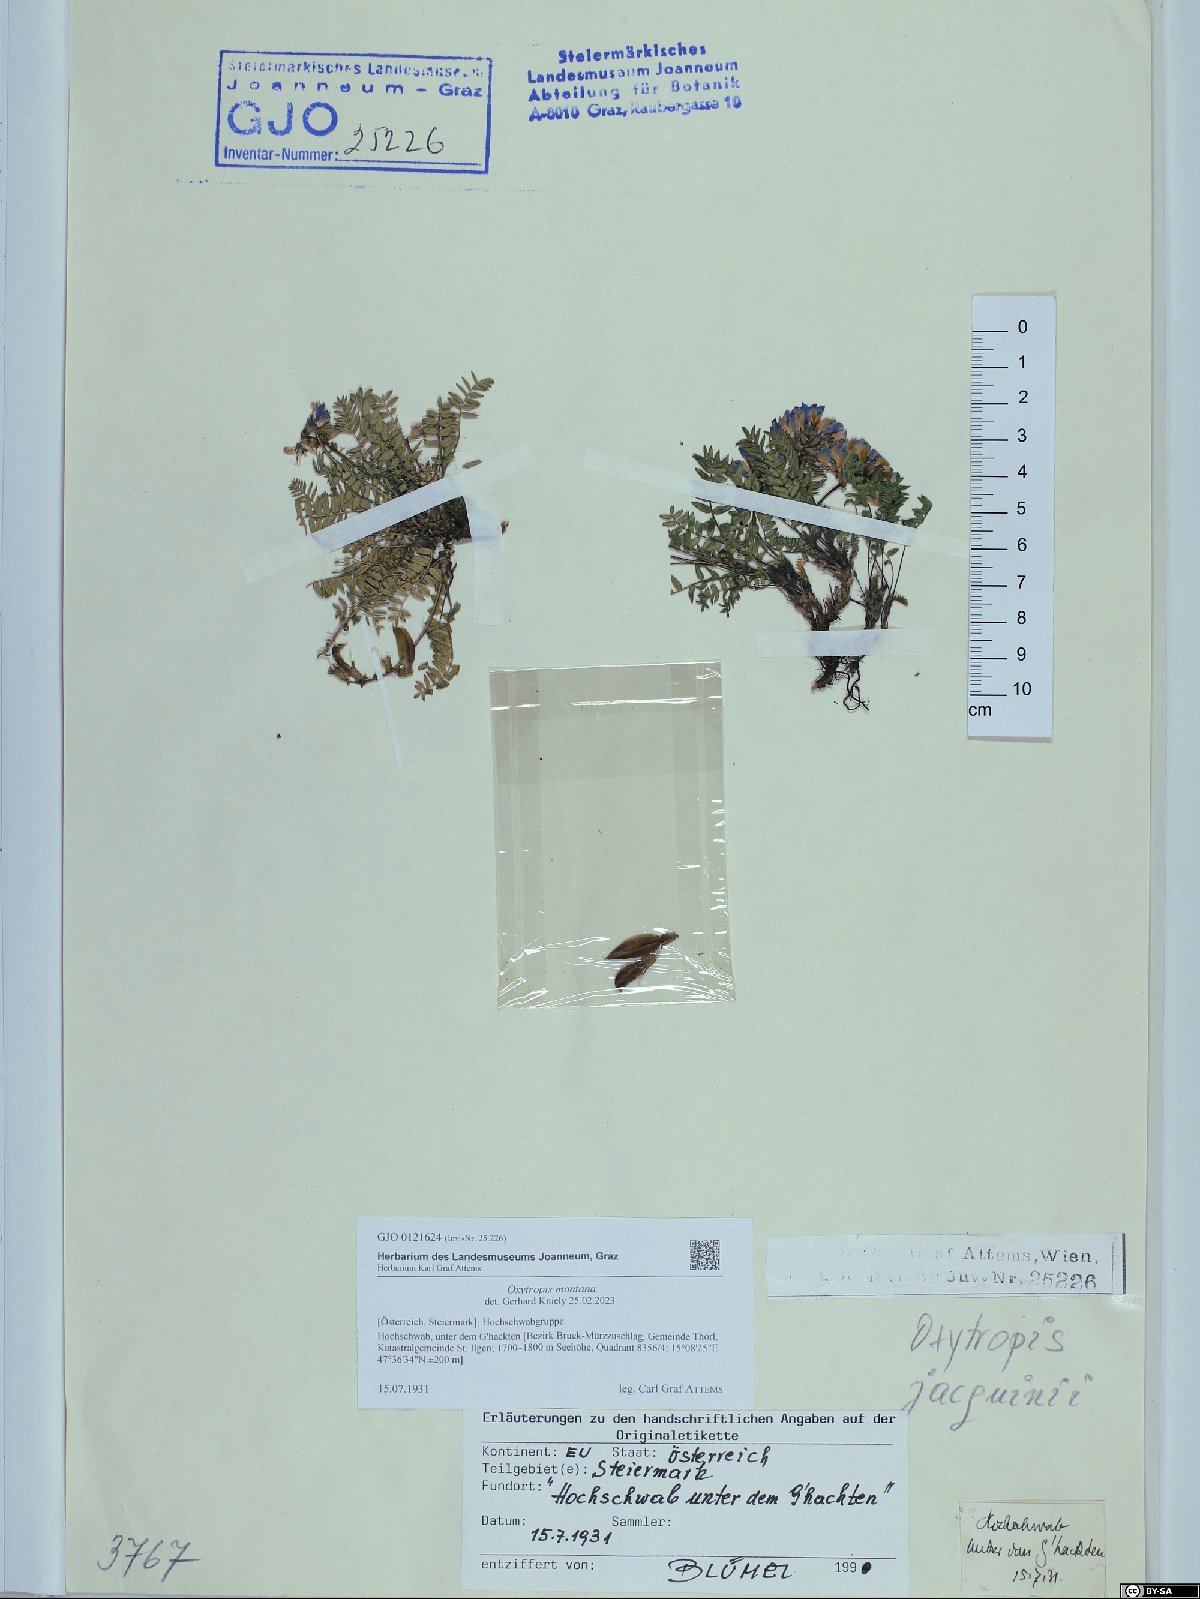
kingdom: Plantae
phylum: Tracheophyta
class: Magnoliopsida
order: Fabales
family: Fabaceae
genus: Oxytropis
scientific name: Oxytropis montana
